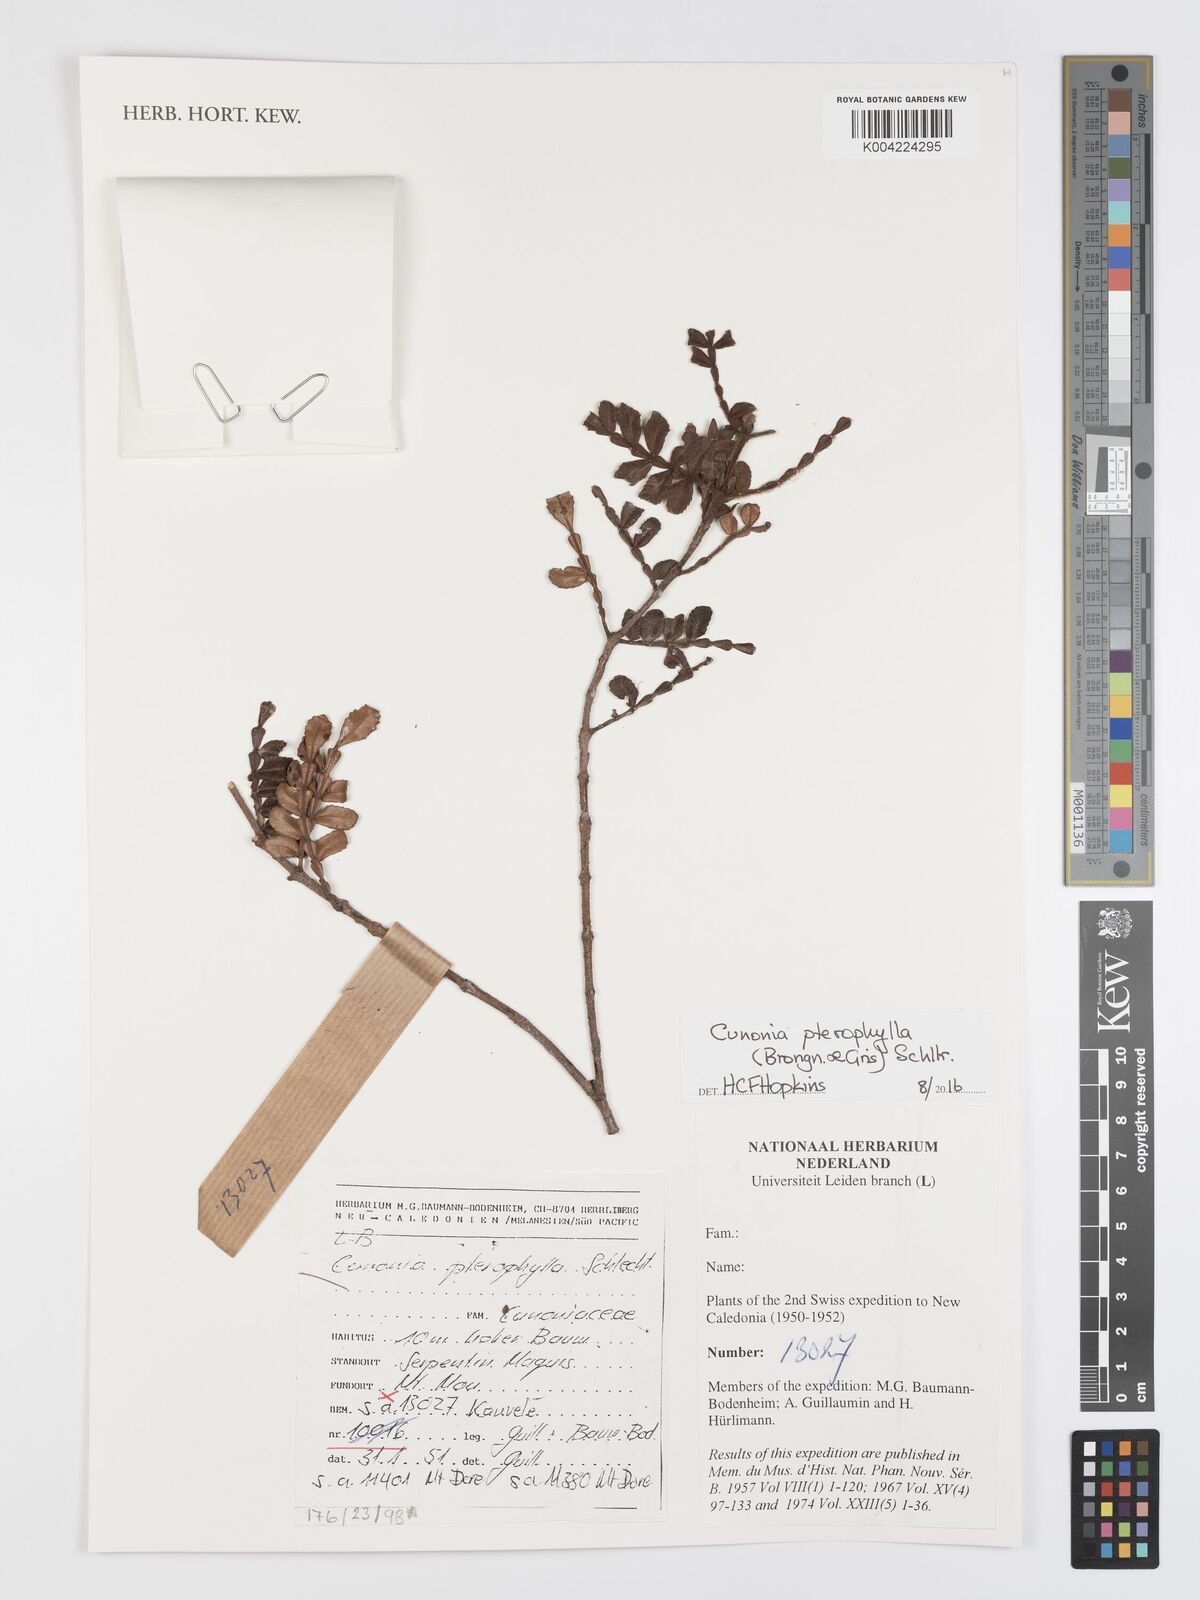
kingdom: Plantae
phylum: Tracheophyta
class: Magnoliopsida
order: Oxalidales
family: Cunoniaceae
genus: Cunonia
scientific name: Cunonia pterophylla
